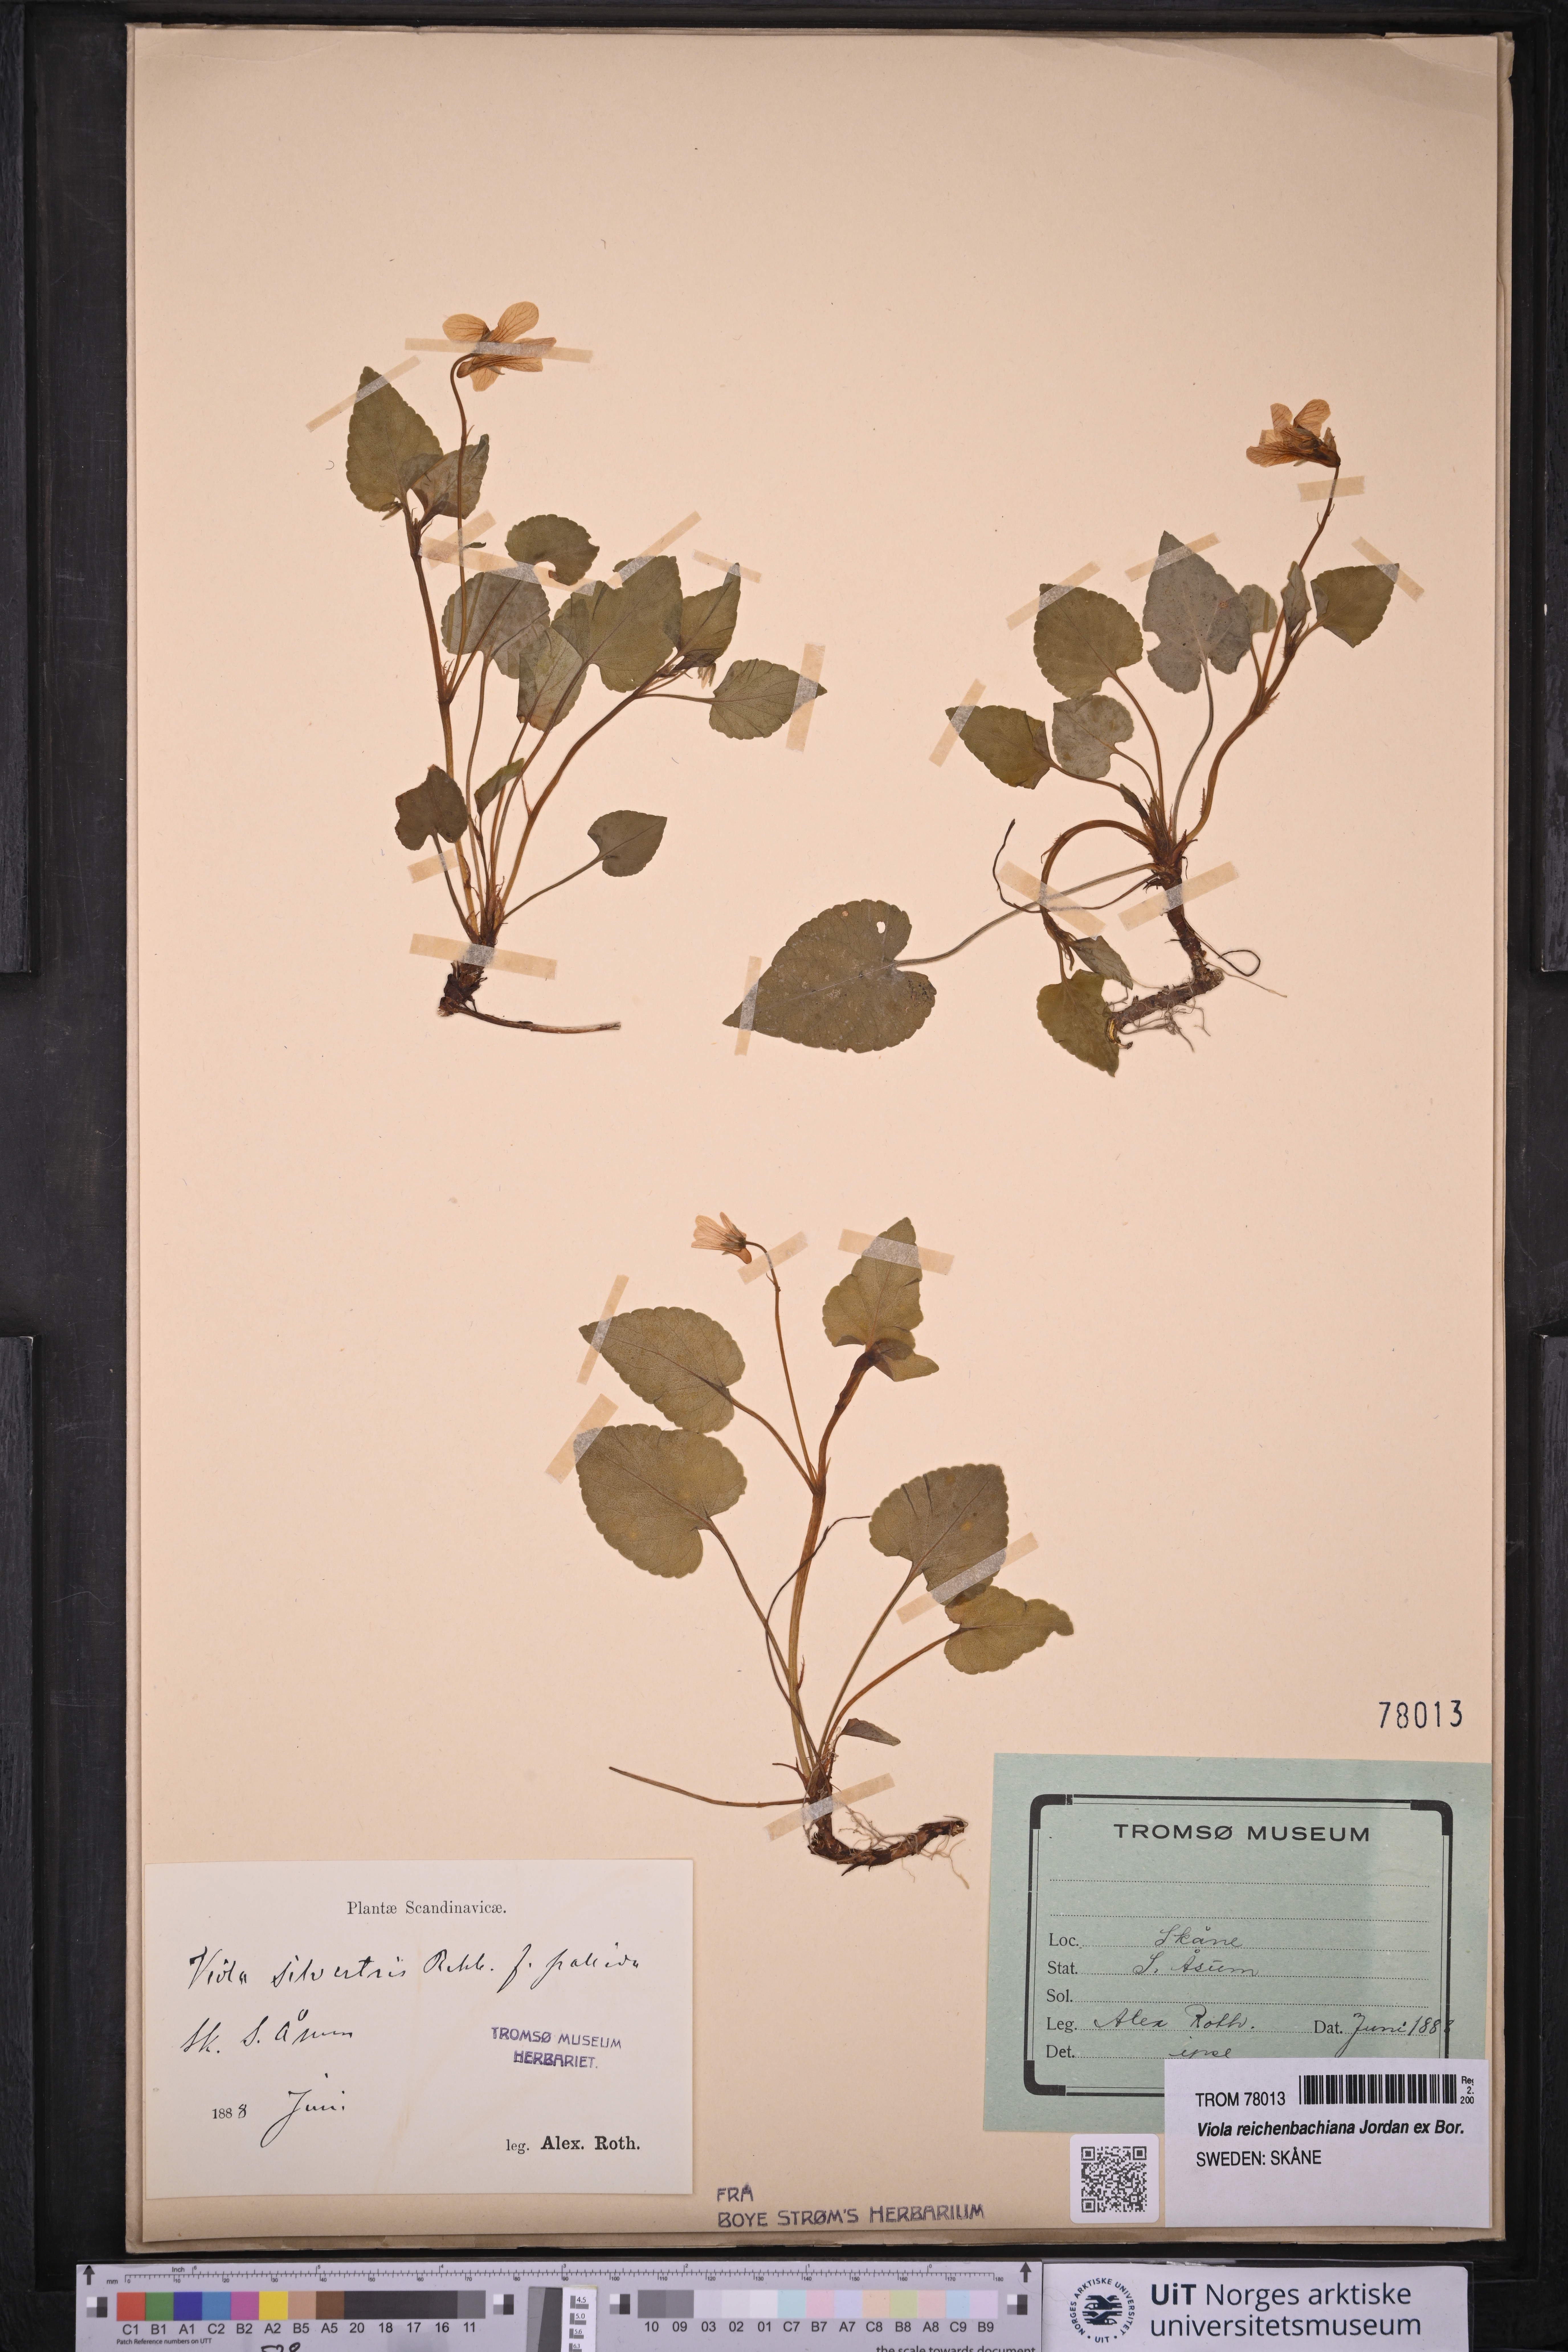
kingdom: Plantae
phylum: Tracheophyta
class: Magnoliopsida
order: Malpighiales
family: Violaceae
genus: Viola
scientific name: Viola reichenbachiana
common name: Early dog-violet
